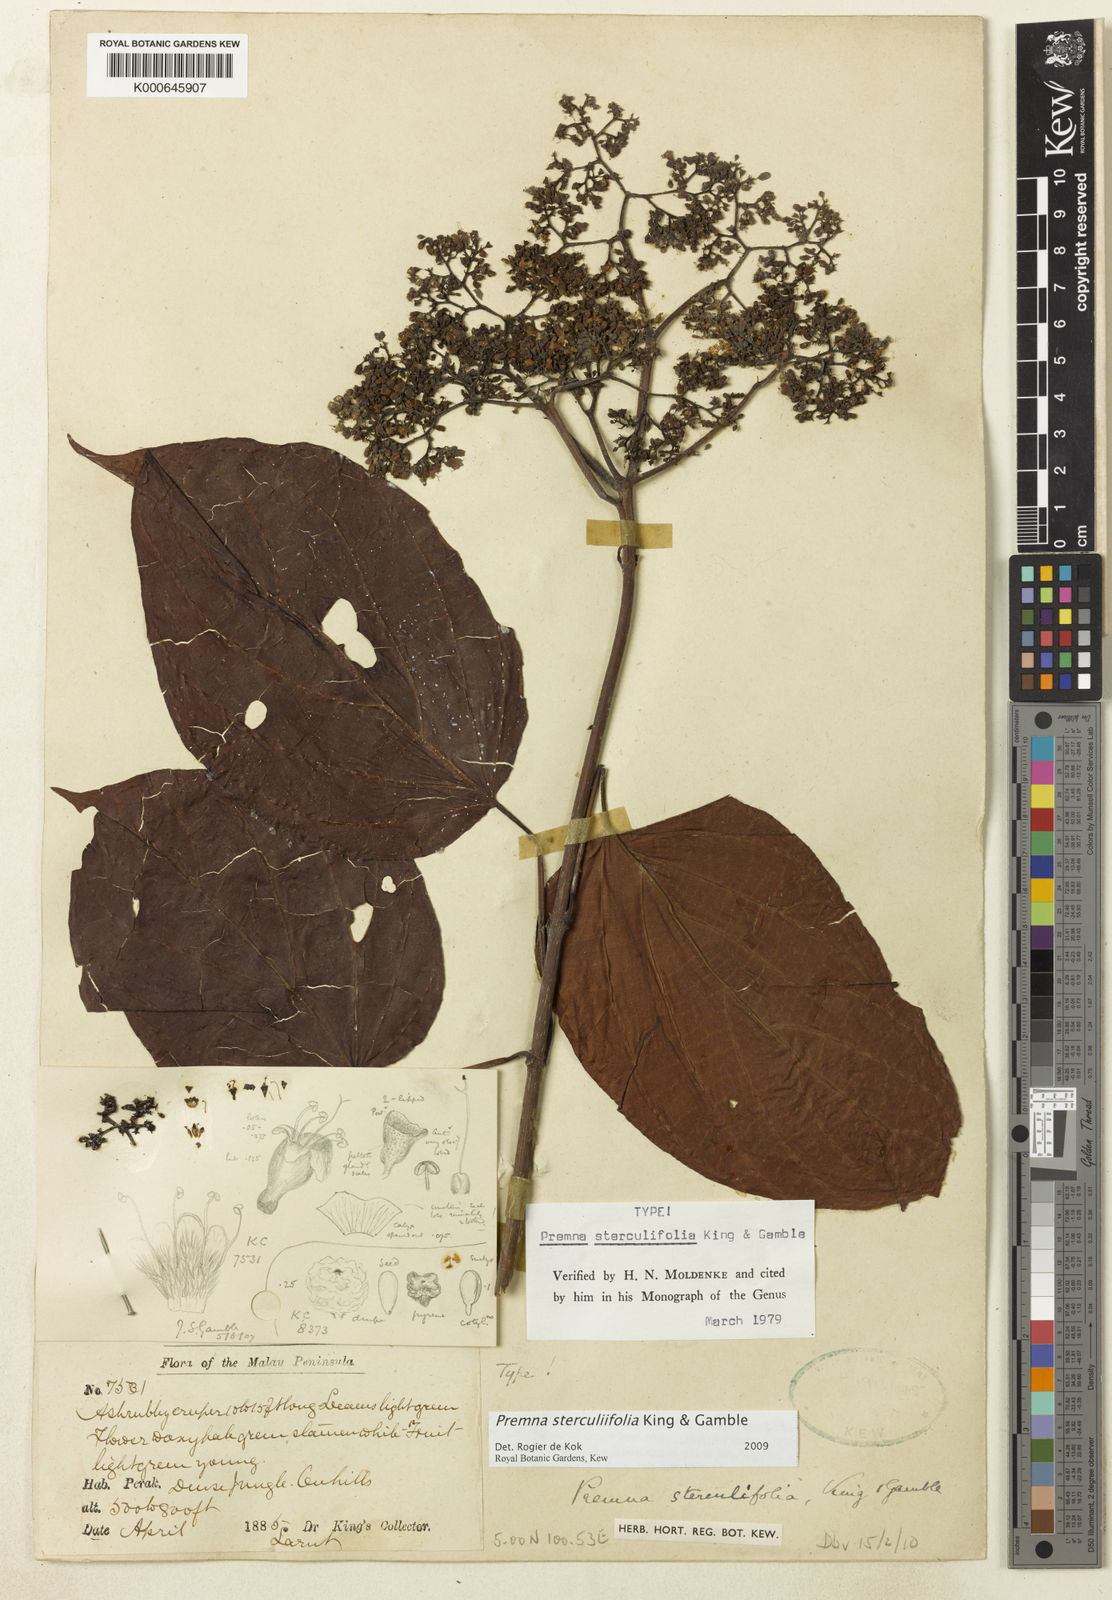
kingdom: Plantae
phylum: Tracheophyta
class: Magnoliopsida
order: Lamiales
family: Lamiaceae
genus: Premna
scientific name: Premna sterculiifolia
